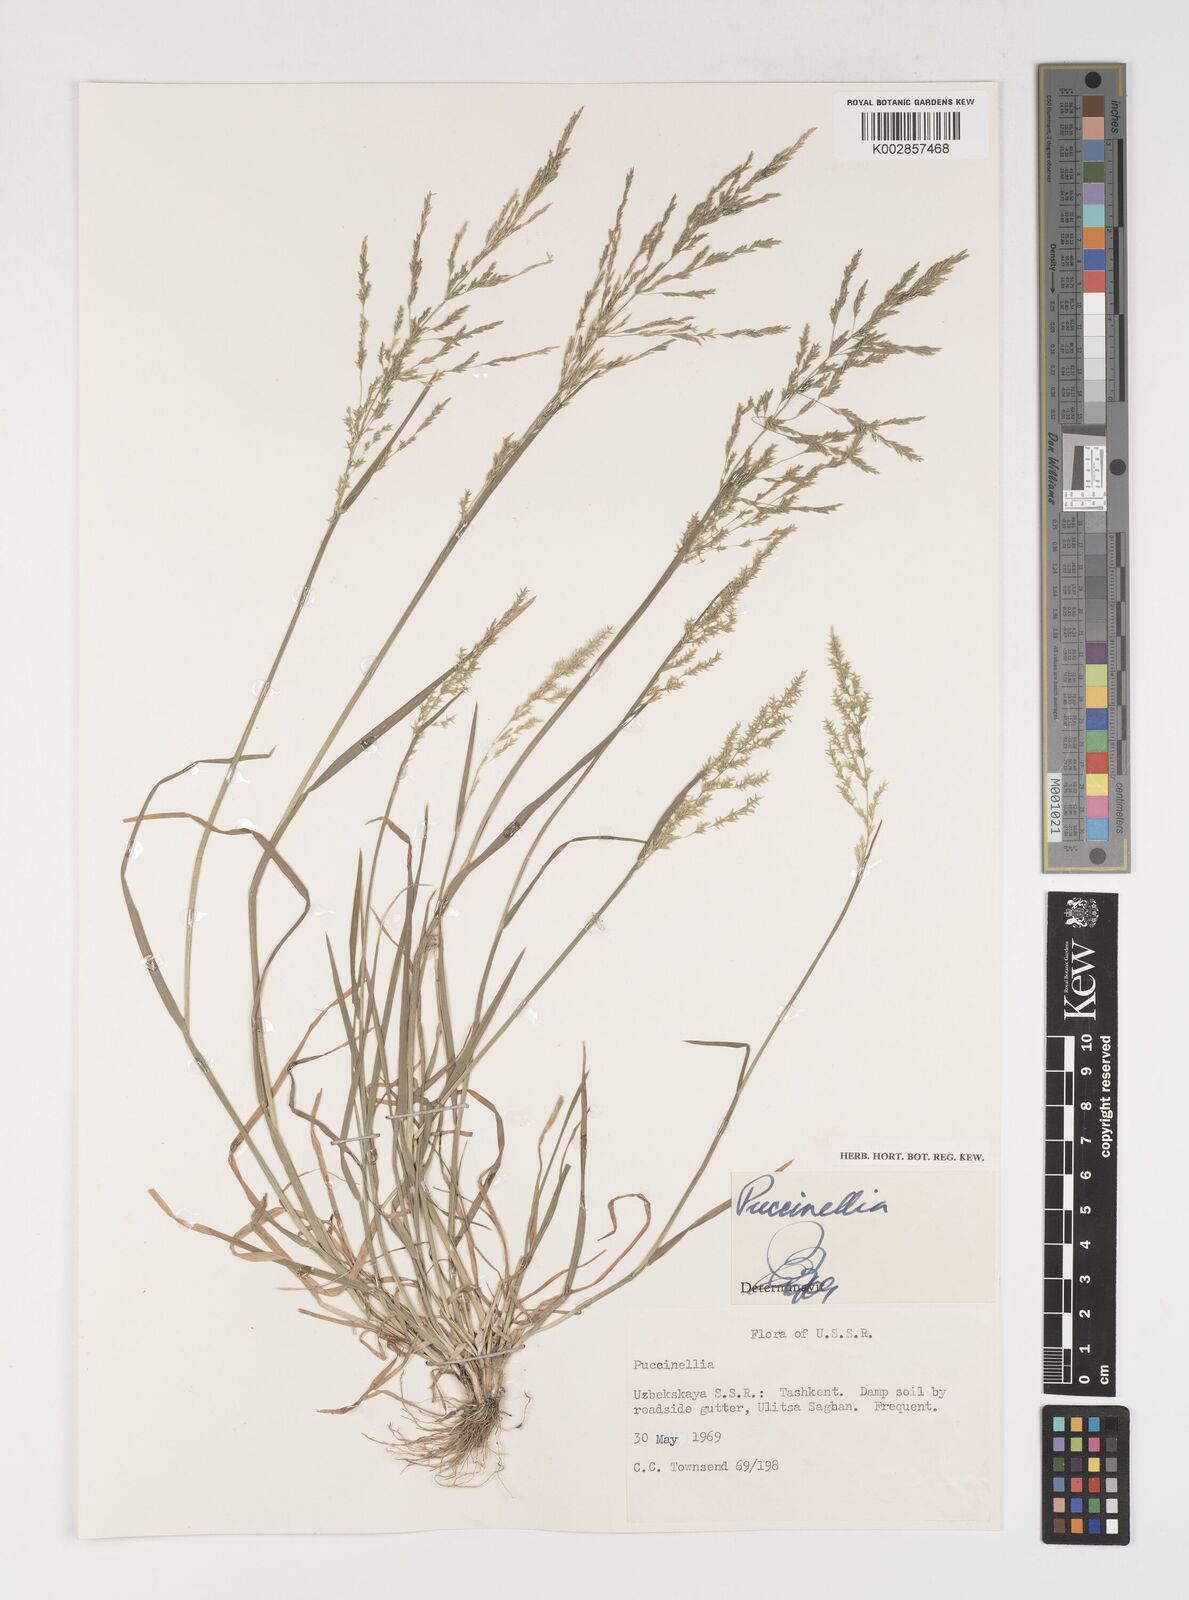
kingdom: Plantae
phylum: Tracheophyta
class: Liliopsida
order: Poales
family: Poaceae
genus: Puccinellia
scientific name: Puccinellia
